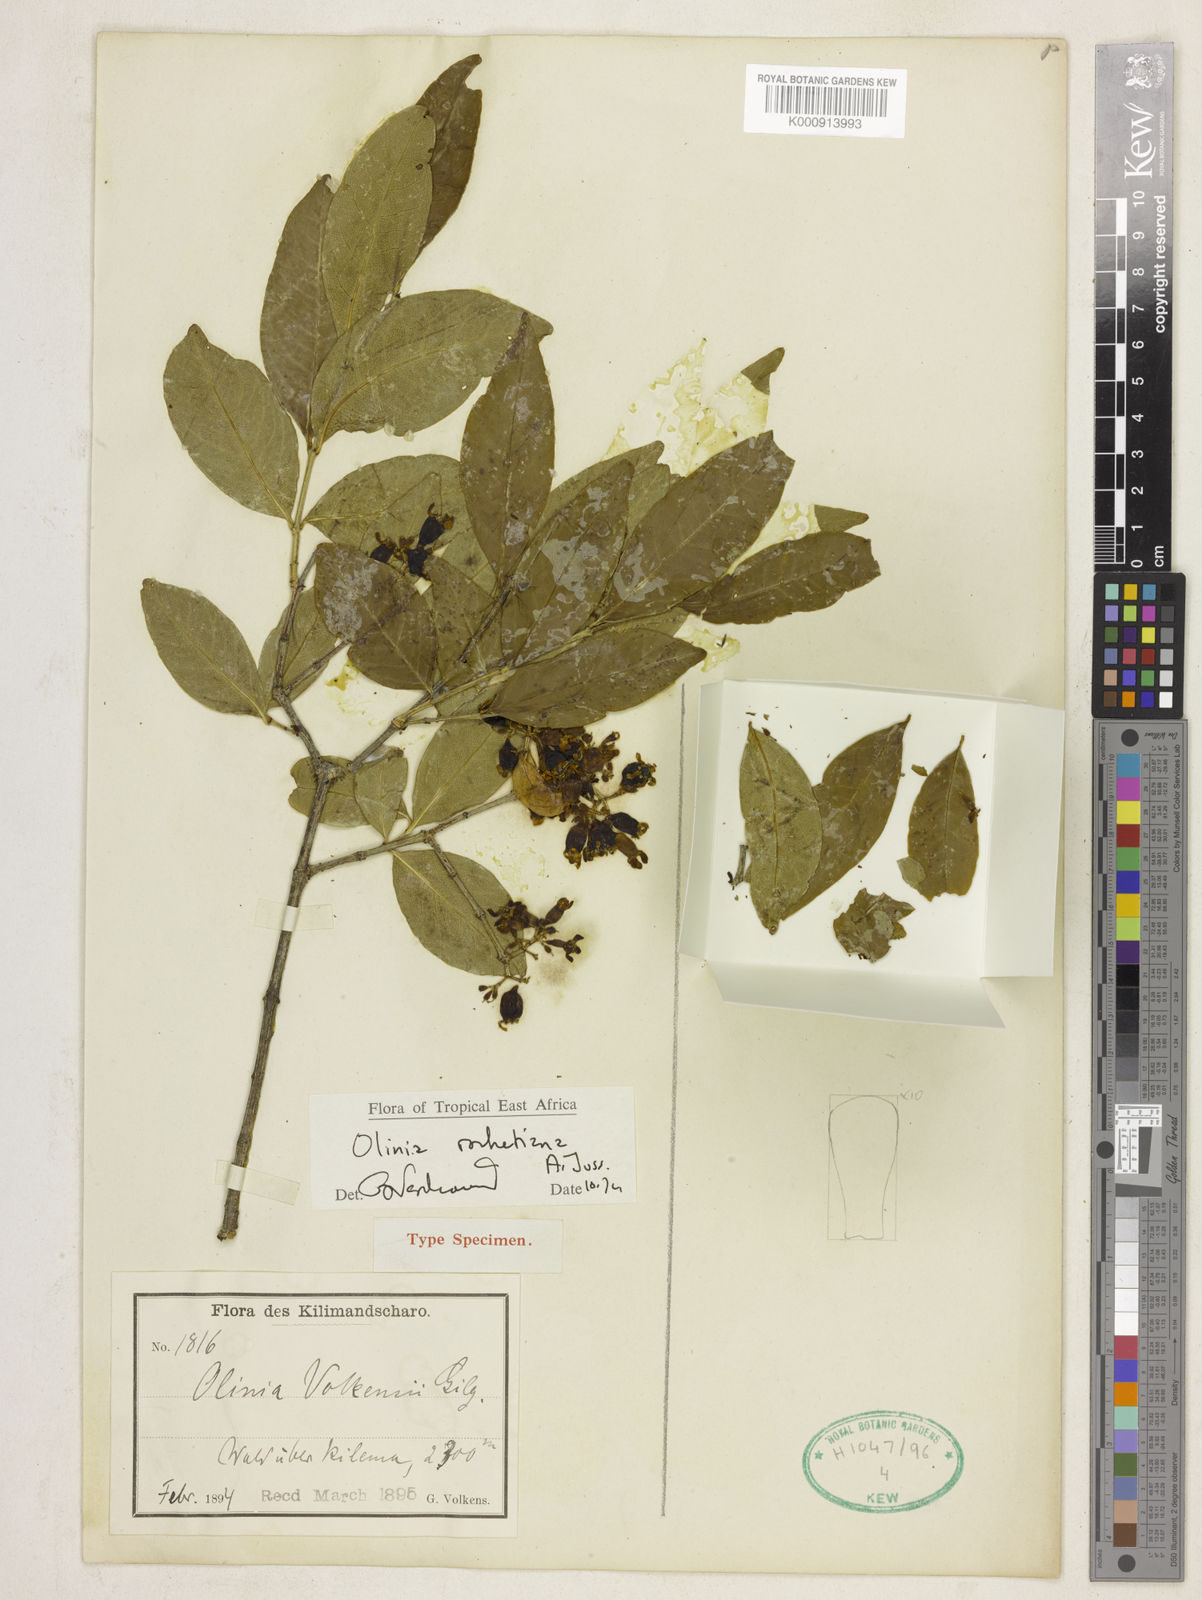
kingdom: Plantae
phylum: Tracheophyta
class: Magnoliopsida
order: Myrtales
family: Penaeaceae
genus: Olinia
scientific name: Olinia
